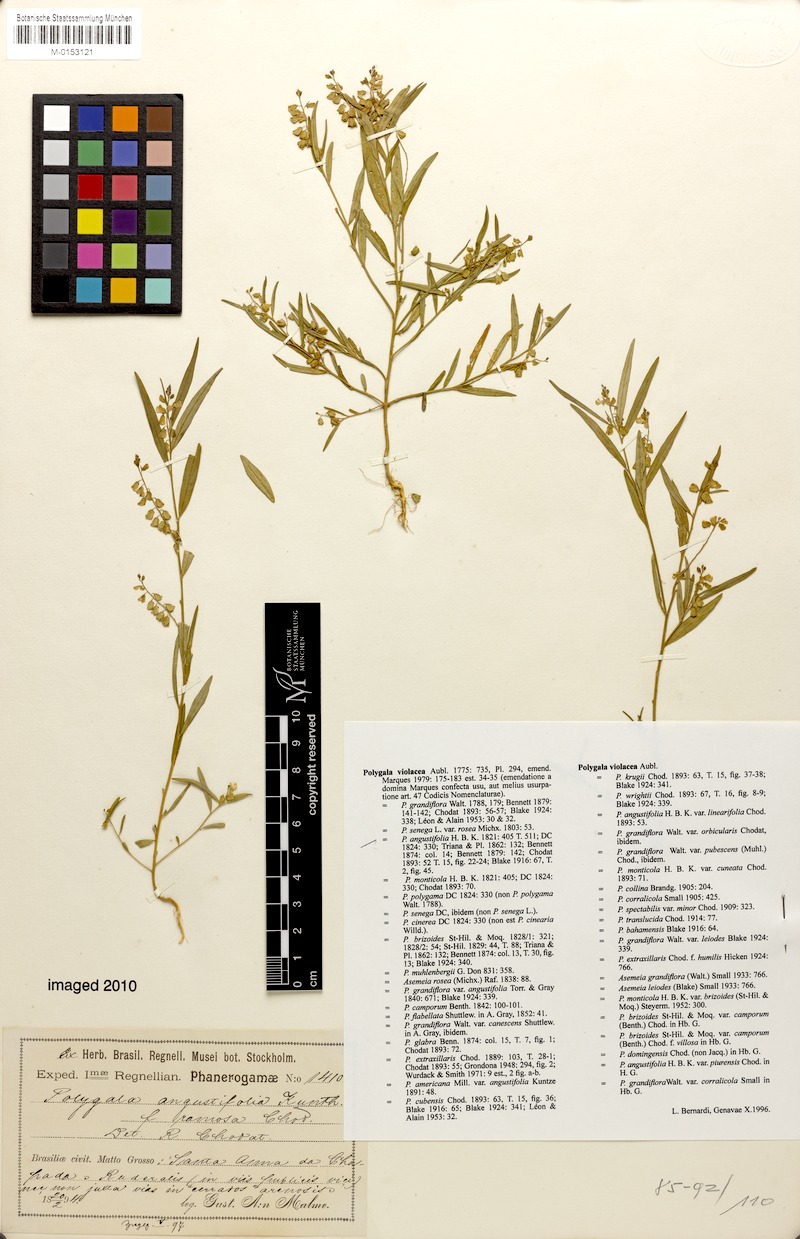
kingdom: Plantae
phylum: Tracheophyta
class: Magnoliopsida
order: Fabales
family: Polygalaceae
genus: Asemeia
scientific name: Asemeia violacea
